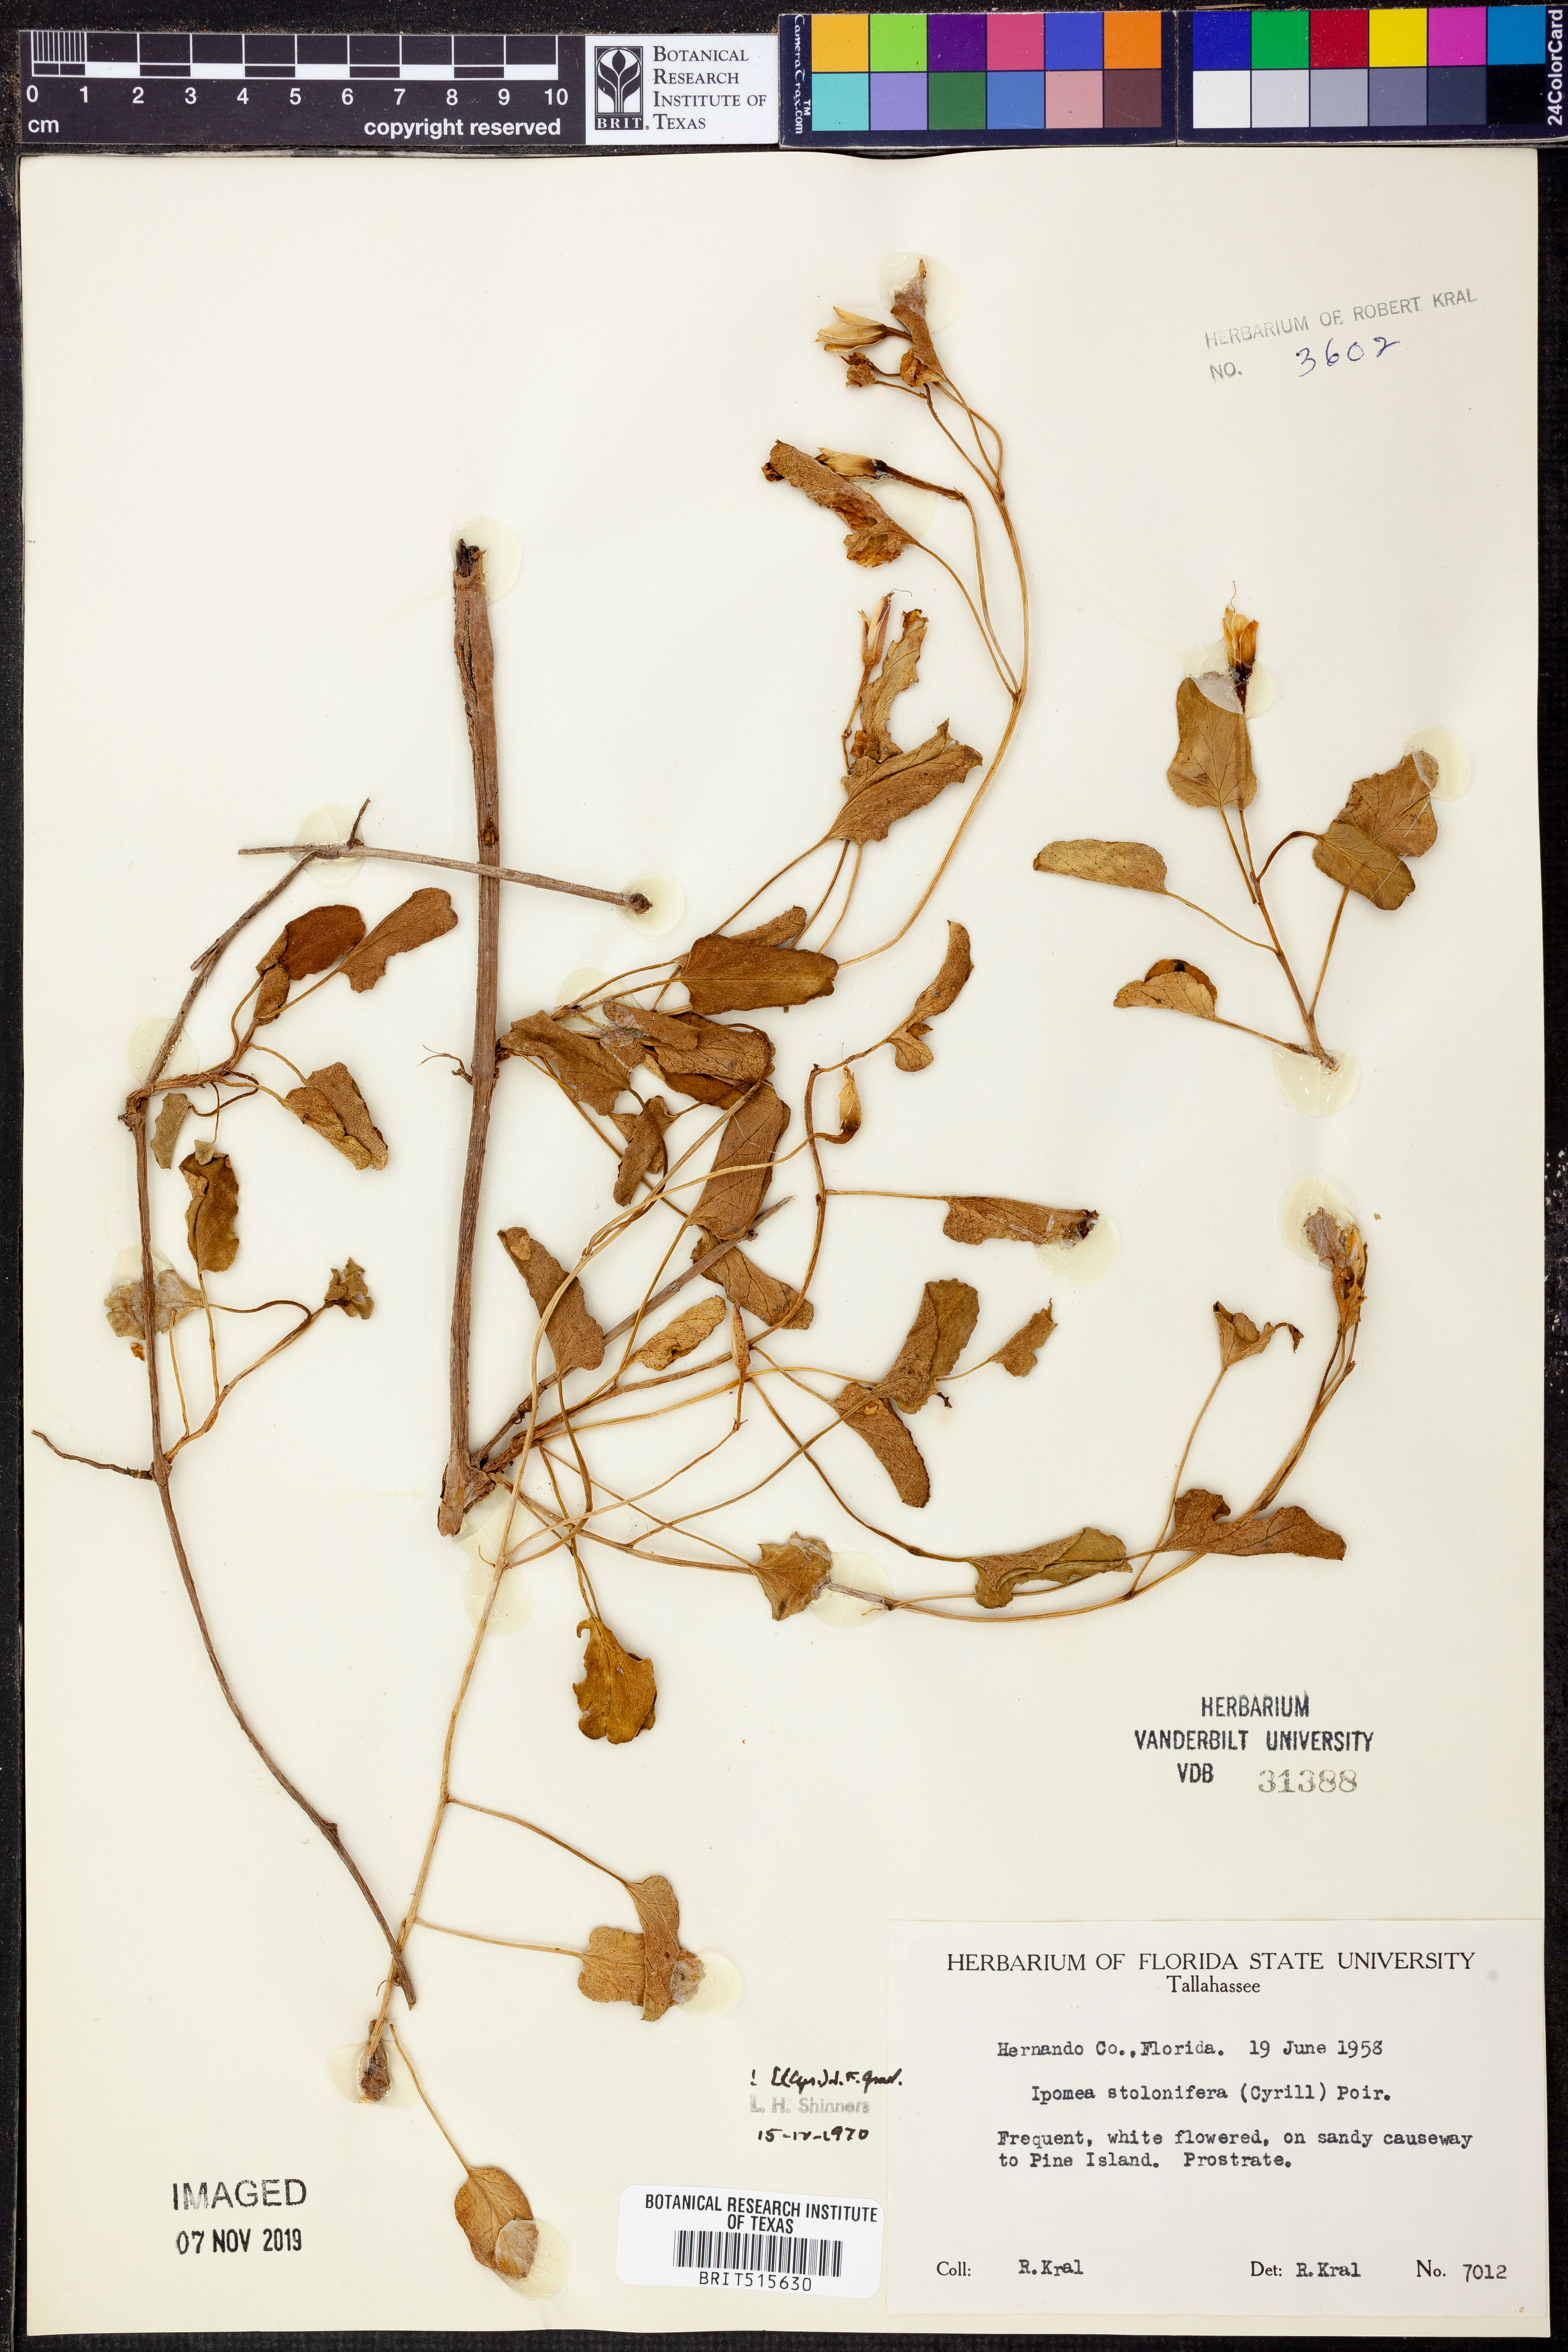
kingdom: Plantae
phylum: Tracheophyta
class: Magnoliopsida
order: Solanales
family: Convolvulaceae
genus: Ipomoea
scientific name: Ipomoea imperati
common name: Fiddle-leaf morning-glory
